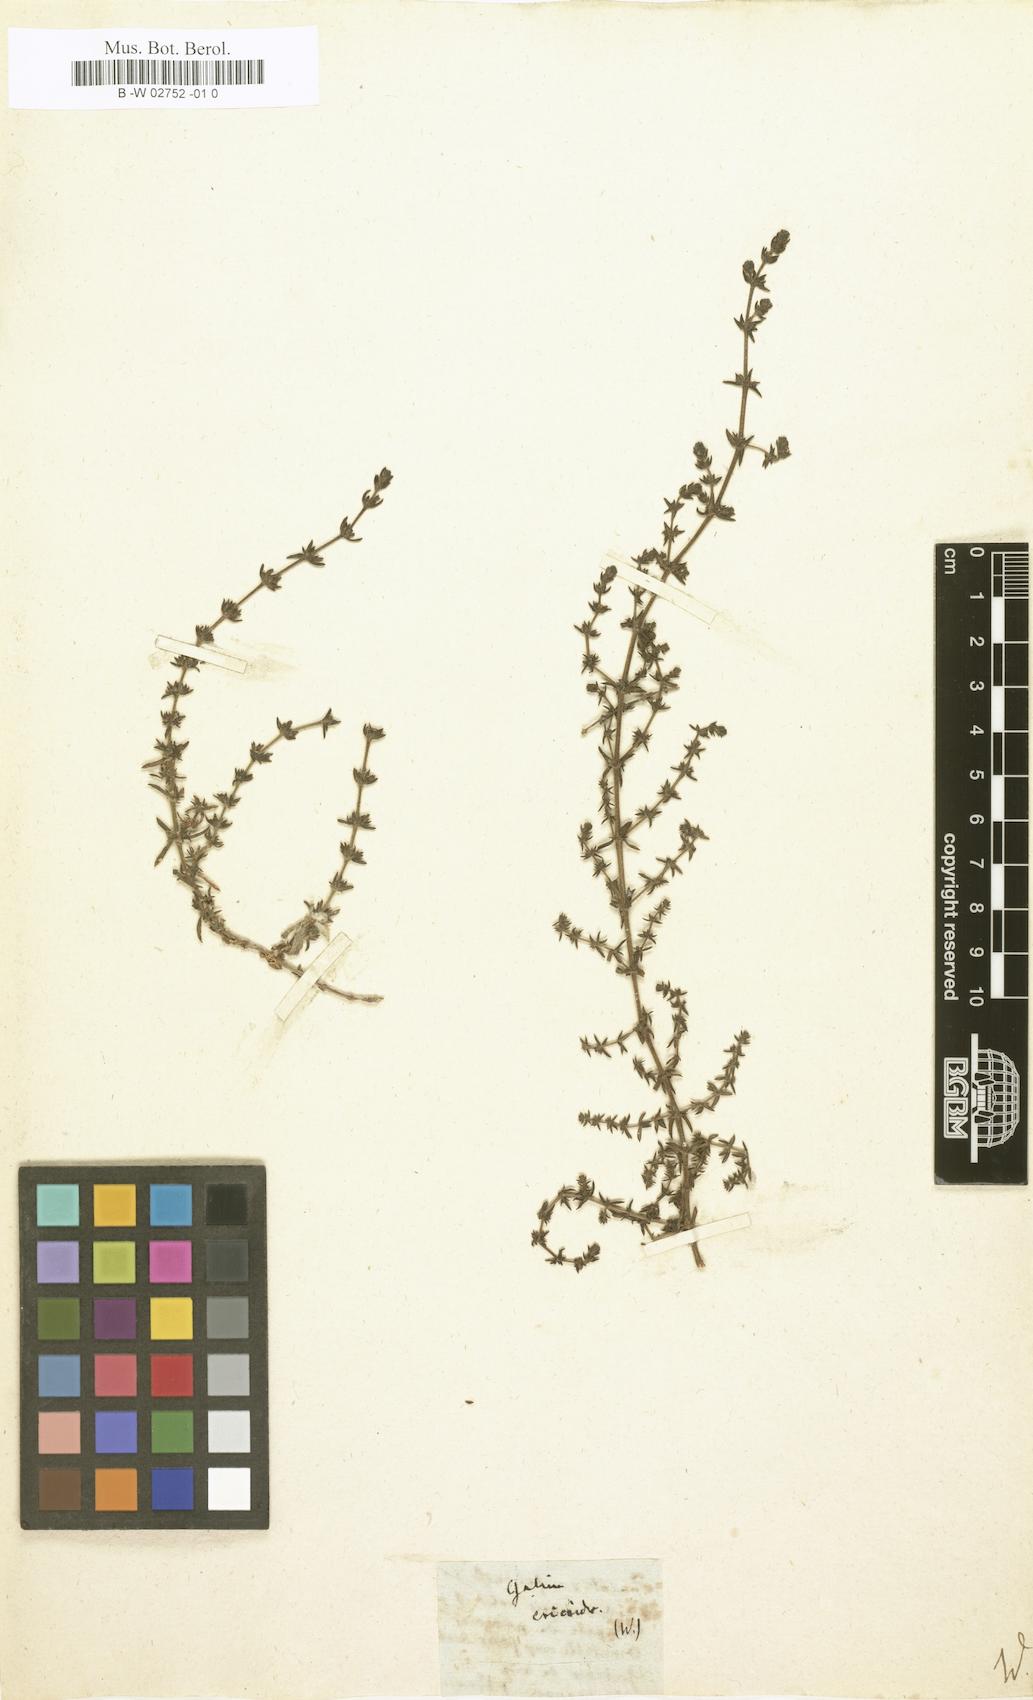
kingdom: Plantae
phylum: Tracheophyta
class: Magnoliopsida
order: Gentianales
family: Rubiaceae
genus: Galium
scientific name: Galium ericoides
